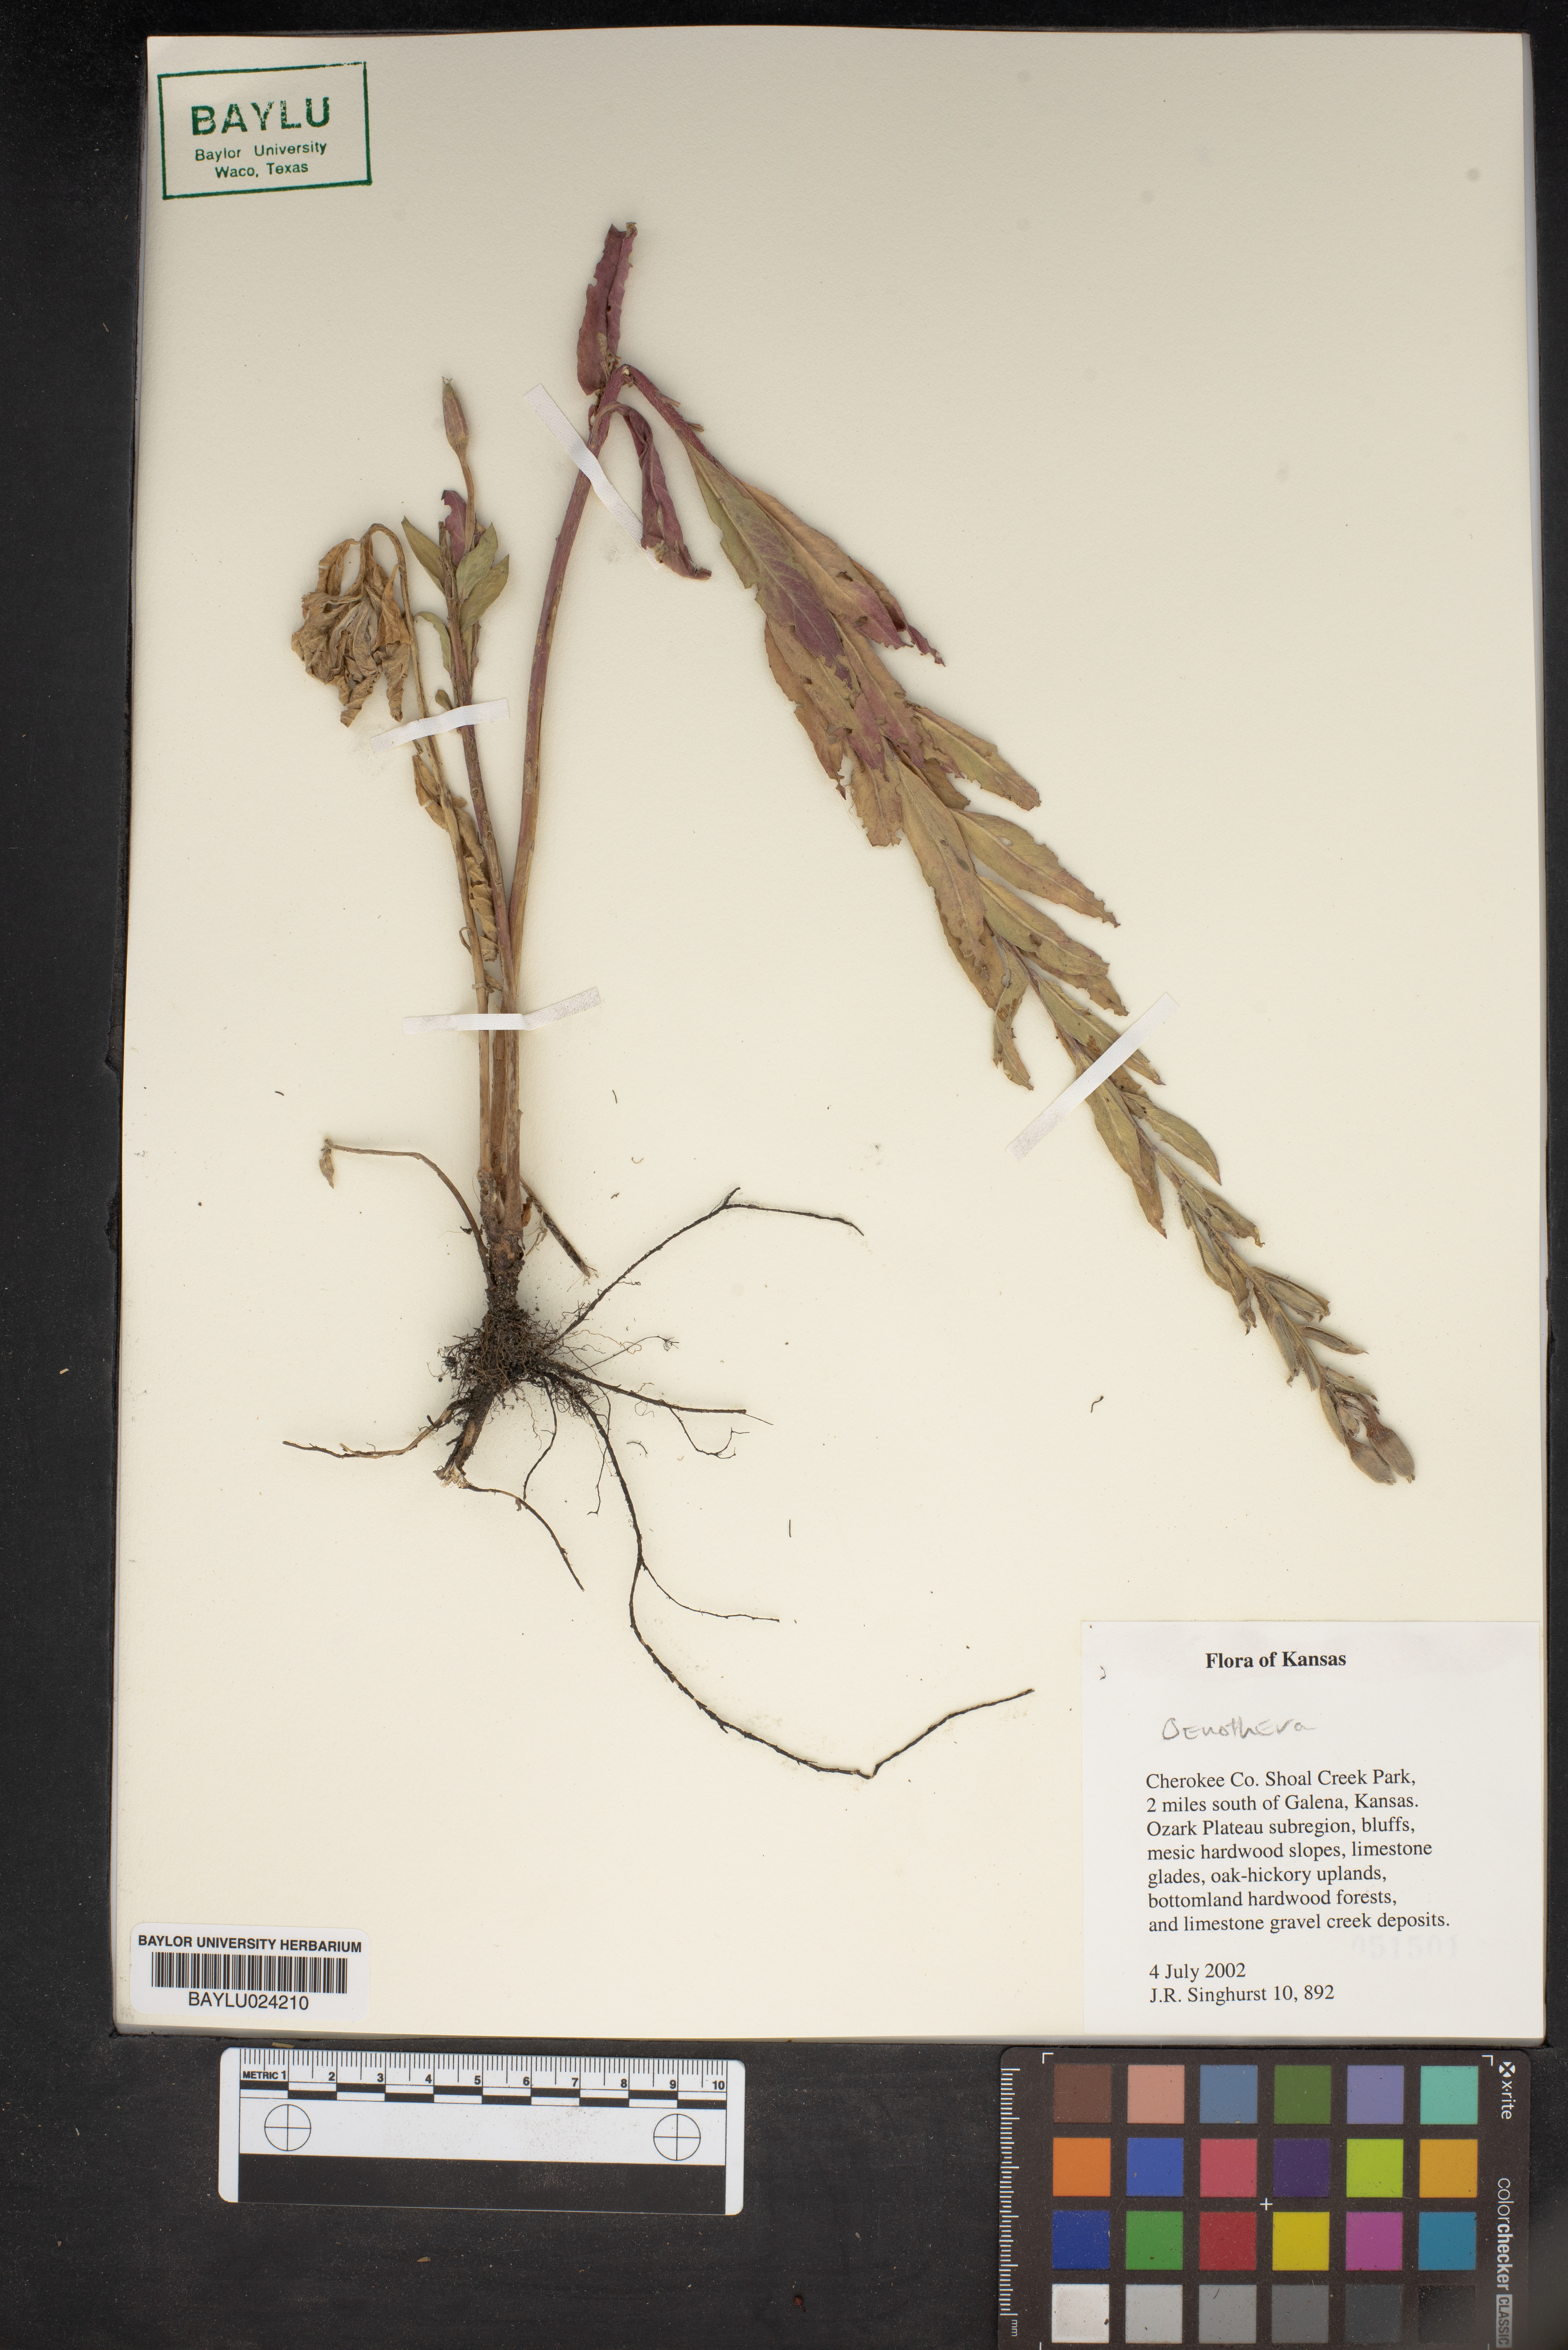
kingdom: Plantae
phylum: Tracheophyta
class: Magnoliopsida
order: Myrtales
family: Onagraceae
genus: Oenothera
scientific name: Oenothera
